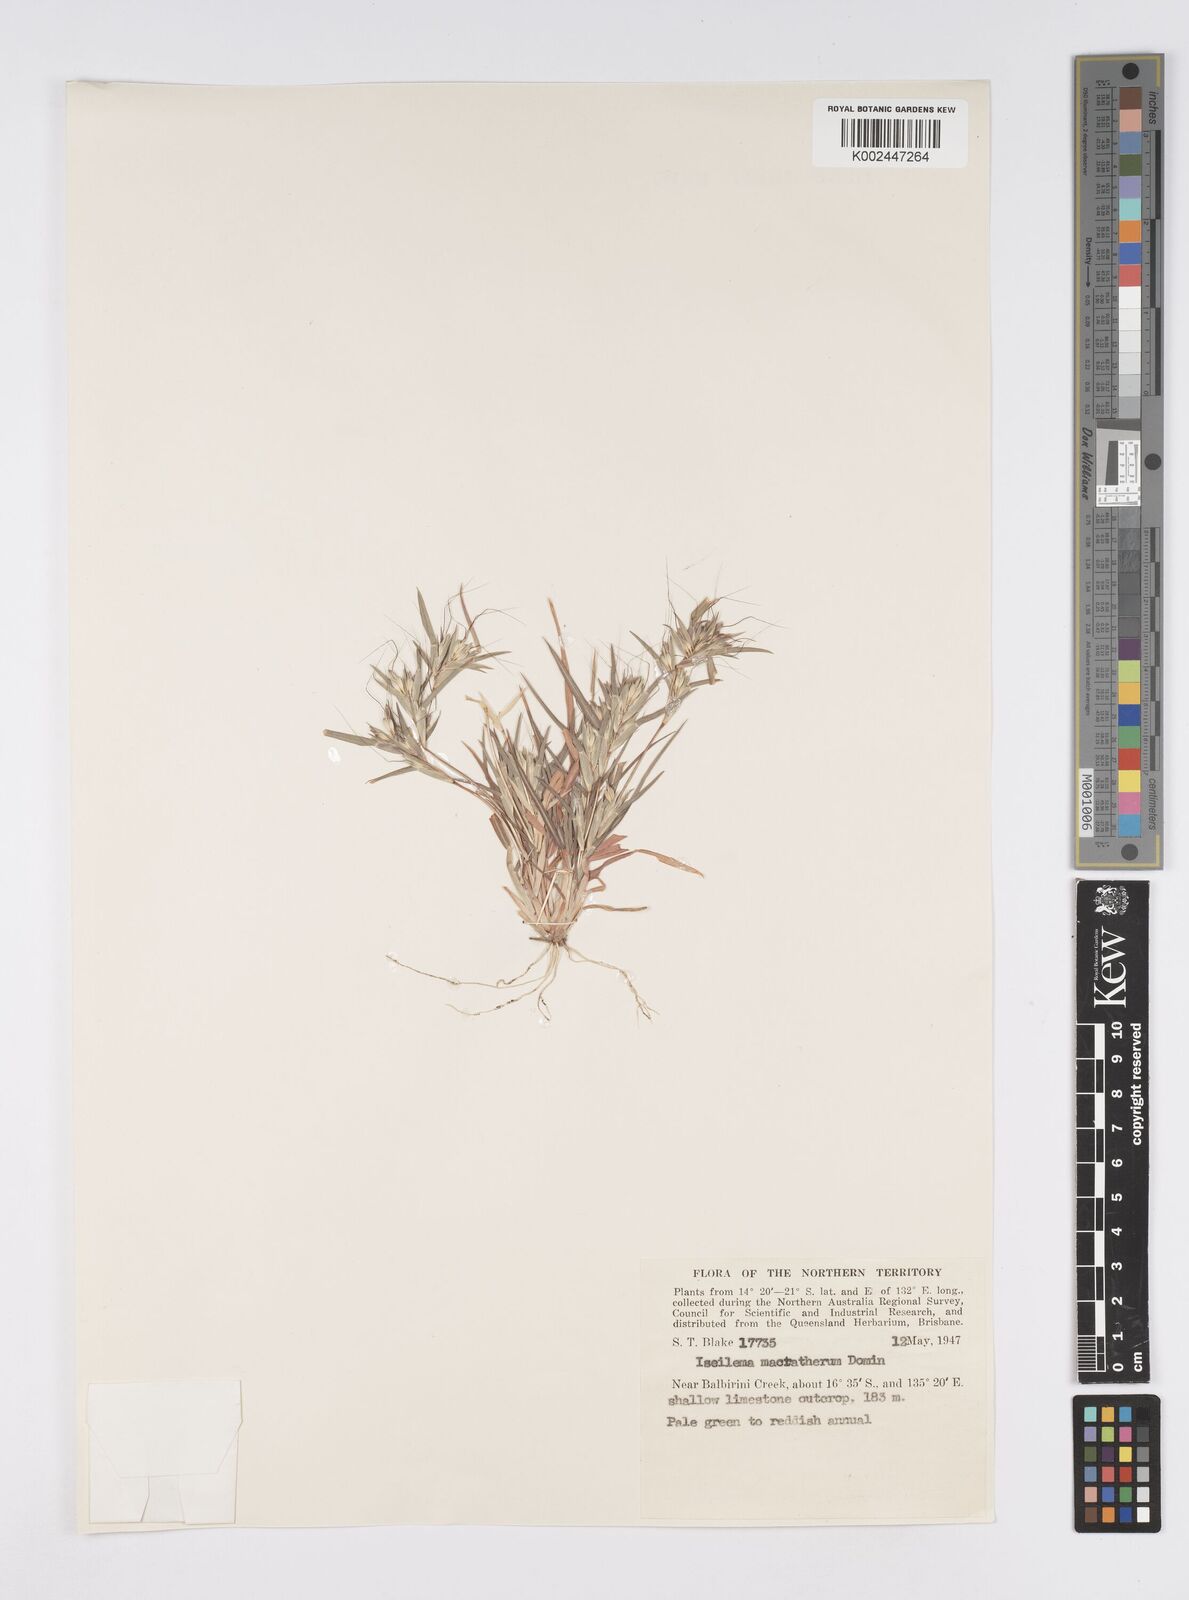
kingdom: Plantae
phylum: Tracheophyta
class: Liliopsida
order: Poales
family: Poaceae
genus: Iseilema
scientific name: Iseilema macratherum
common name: Bull flinders grass
